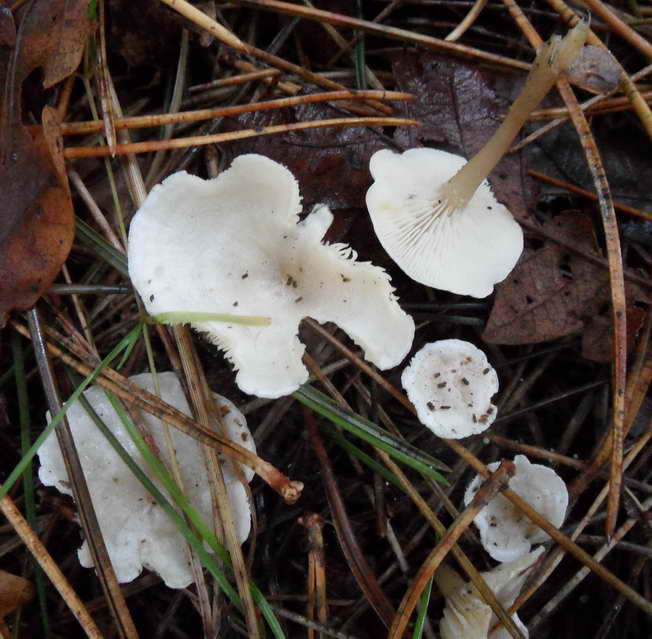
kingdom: Fungi
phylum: Basidiomycota
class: Agaricomycetes
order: Agaricales
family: Tricholomataceae
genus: Leucocybe
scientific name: Leucocybe candicans
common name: kridt-tragthat
